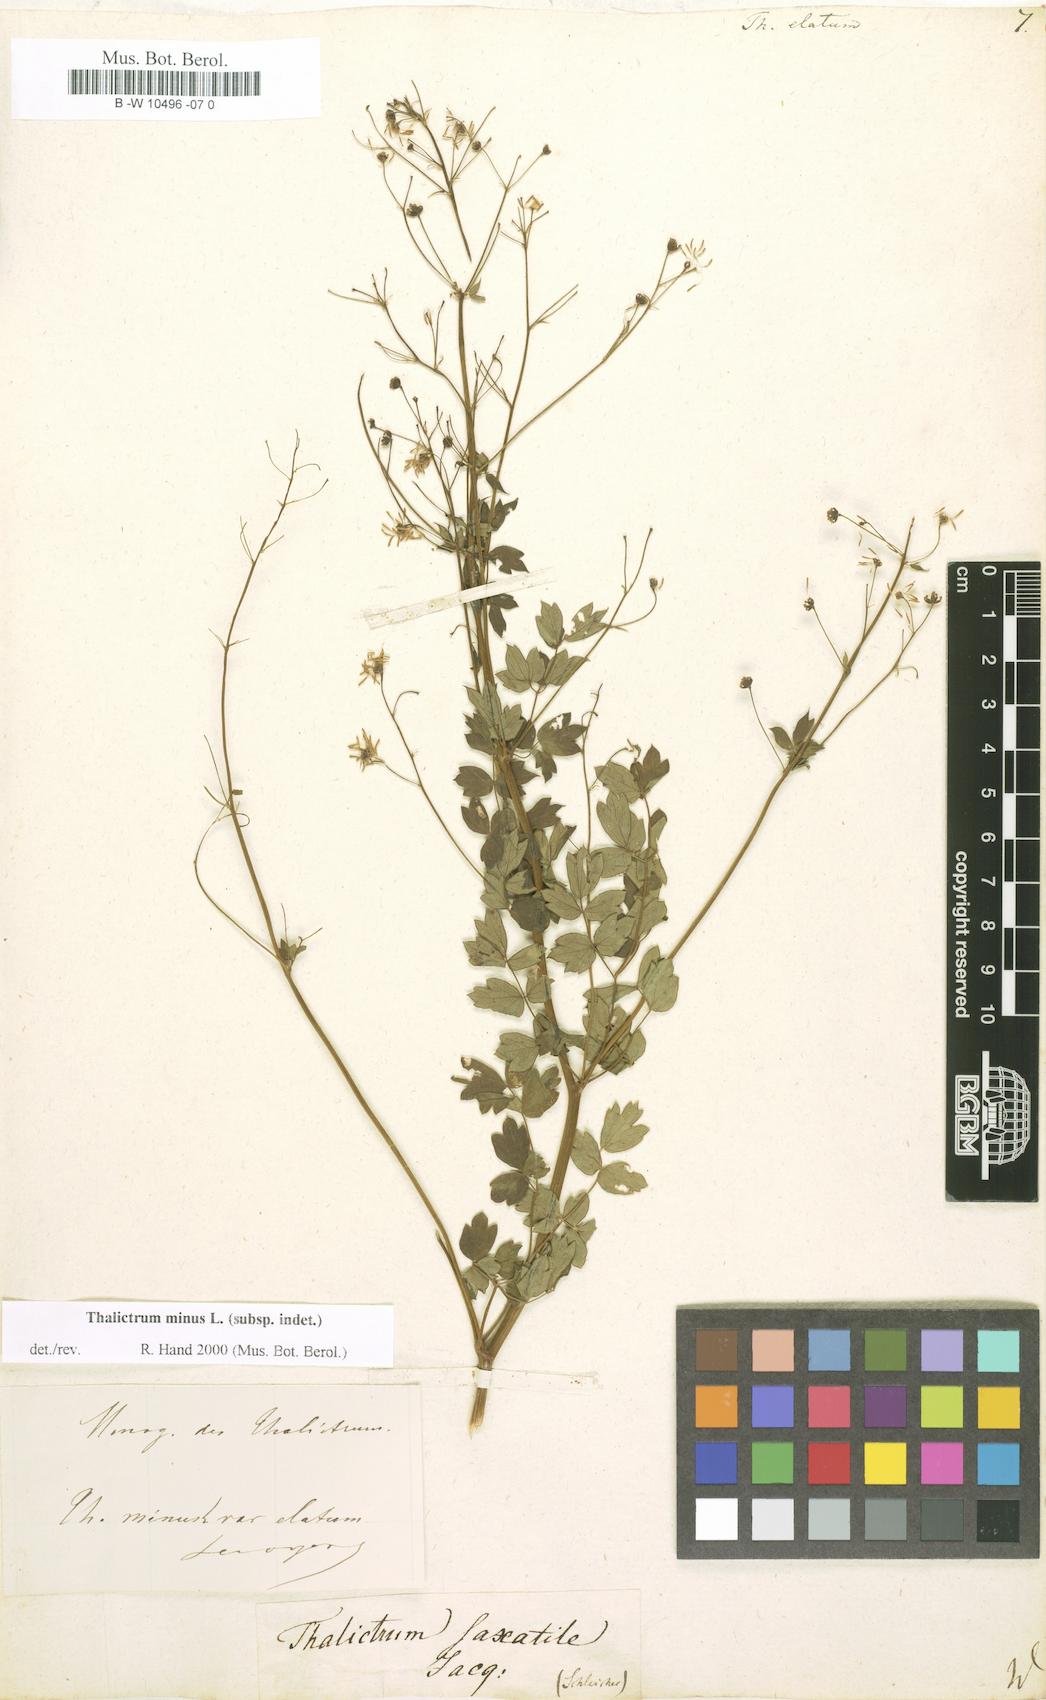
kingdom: Plantae
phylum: Tracheophyta
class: Magnoliopsida
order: Ranunculales
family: Ranunculaceae
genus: Thalictrum
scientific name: Thalictrum minus
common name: Lesser meadow-rue
